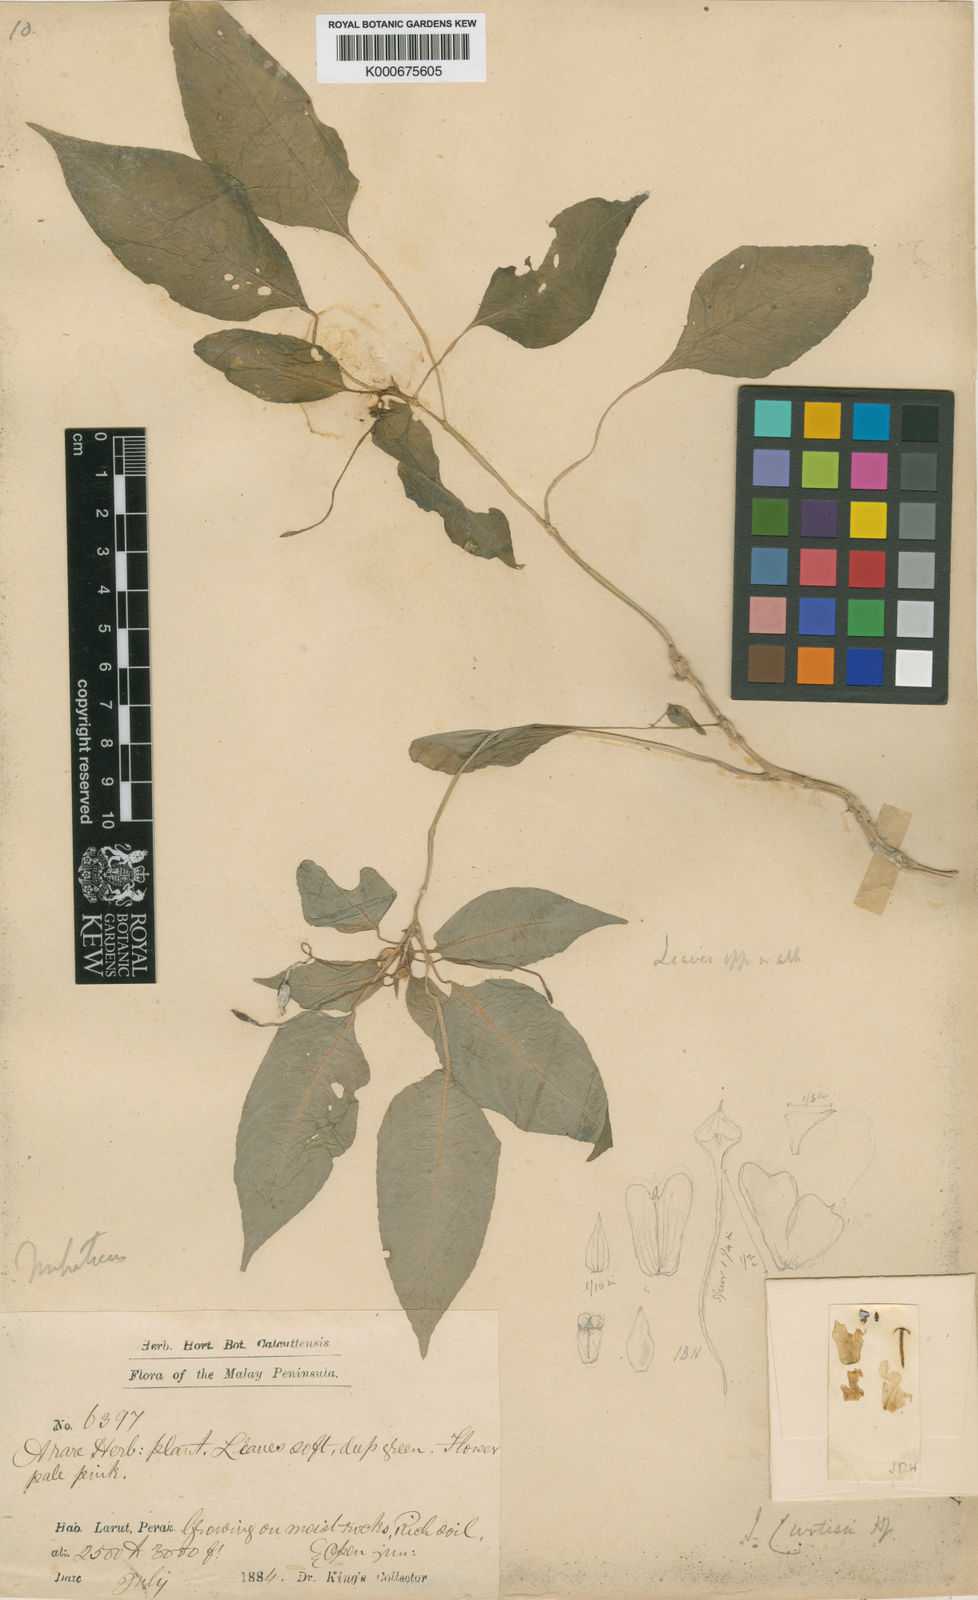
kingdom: Plantae
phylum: Tracheophyta
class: Magnoliopsida
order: Ericales
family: Balsaminaceae
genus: Impatiens
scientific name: Impatiens curtisii
